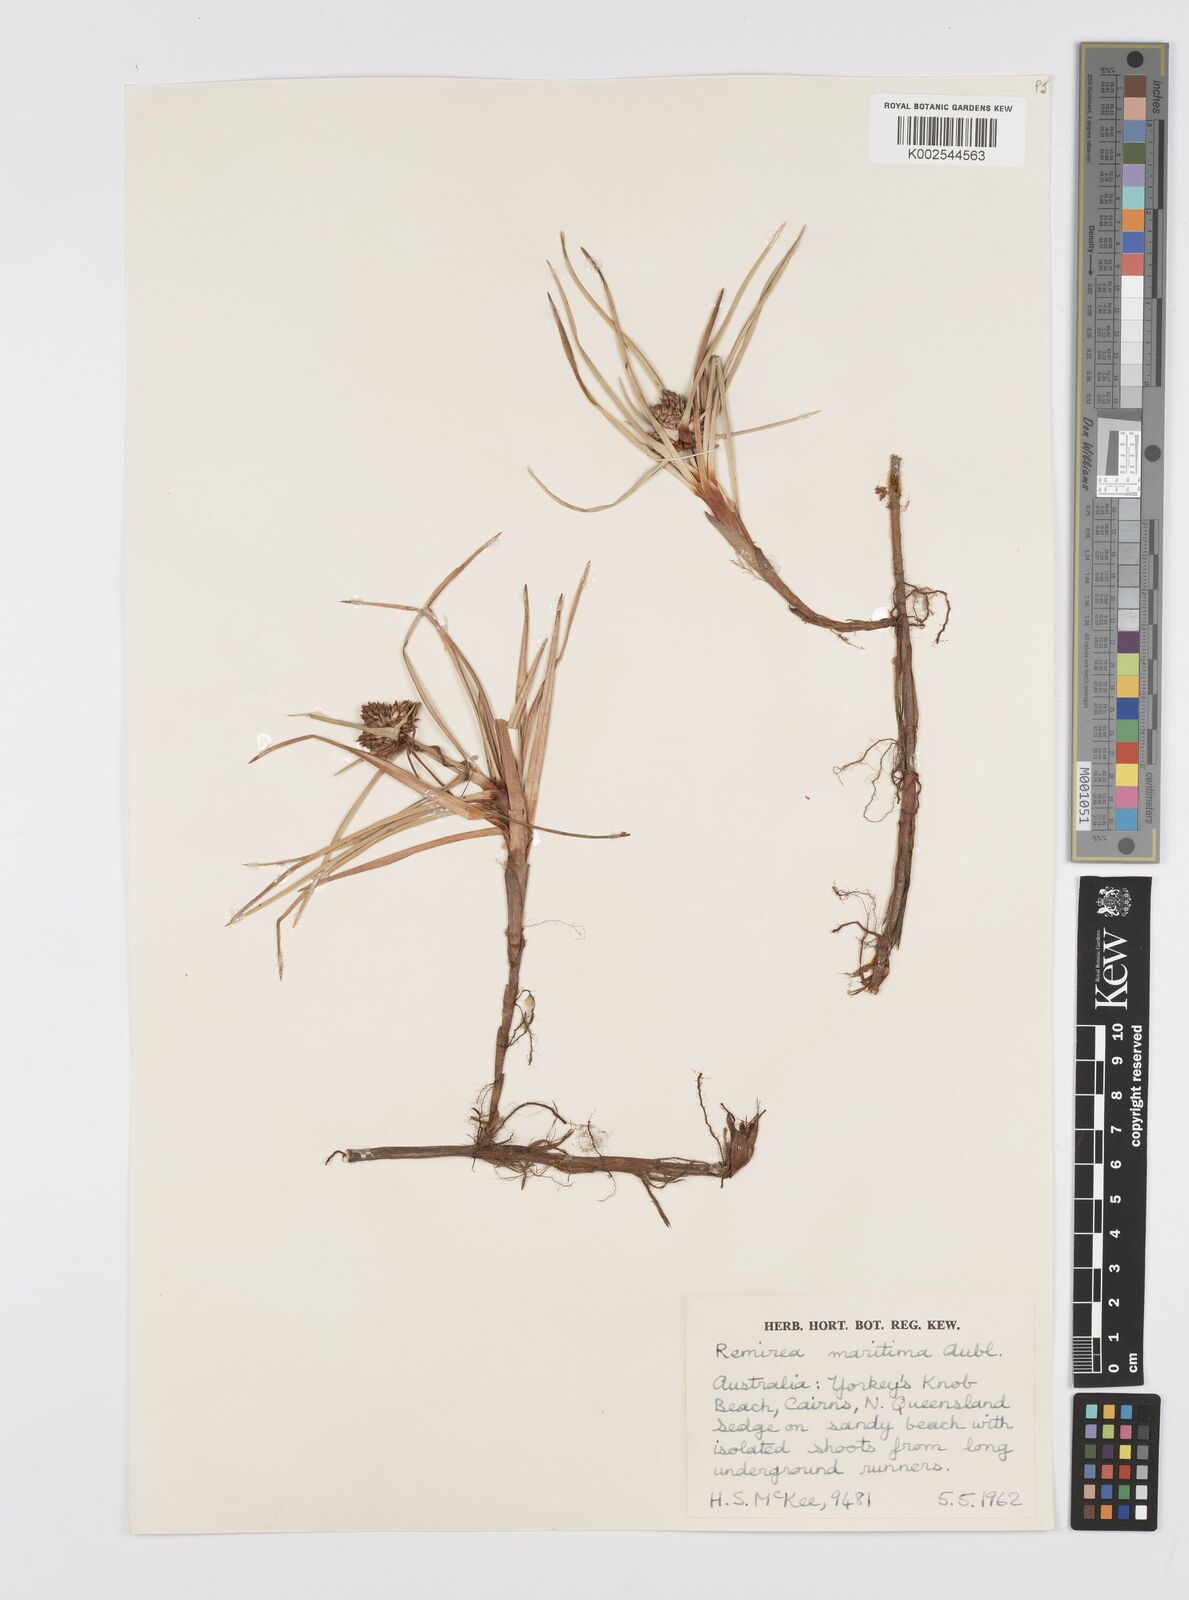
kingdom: Plantae
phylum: Tracheophyta
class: Liliopsida
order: Poales
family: Cyperaceae
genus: Cyperus
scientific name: Cyperus
